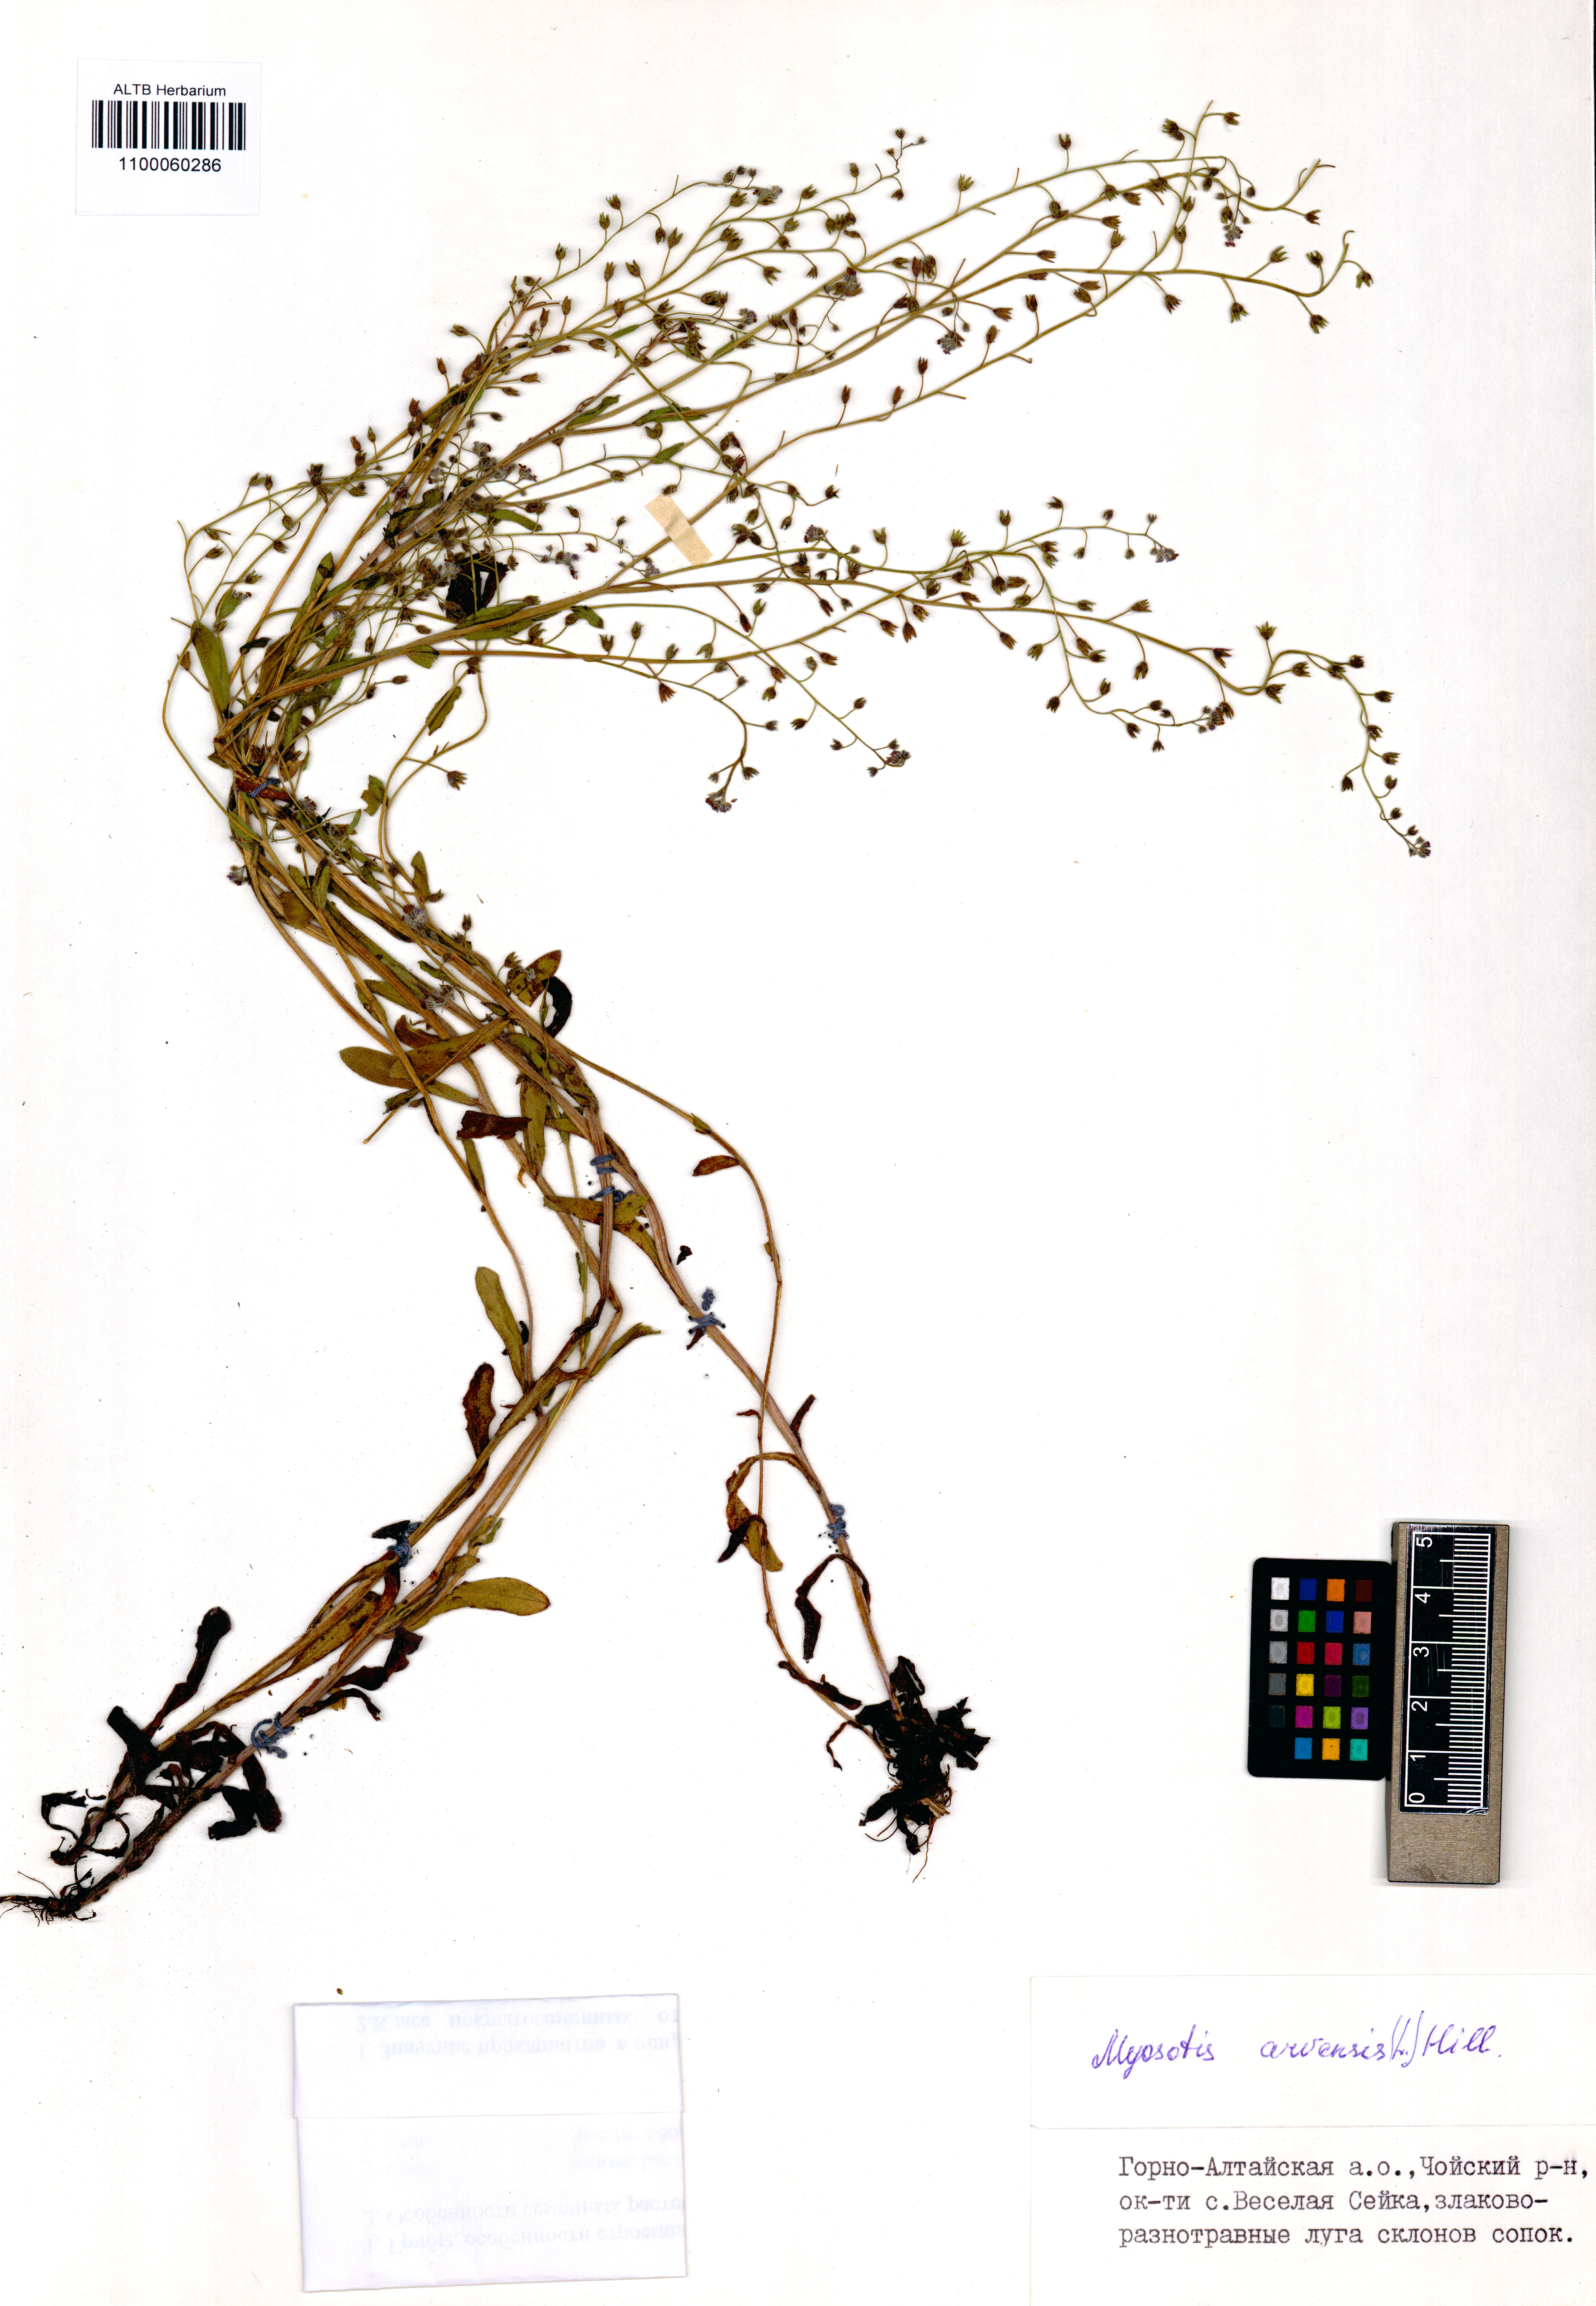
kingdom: Plantae
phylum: Tracheophyta
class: Magnoliopsida
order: Boraginales
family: Boraginaceae
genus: Myosotis
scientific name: Myosotis arvensis
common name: Field forget-me-not
